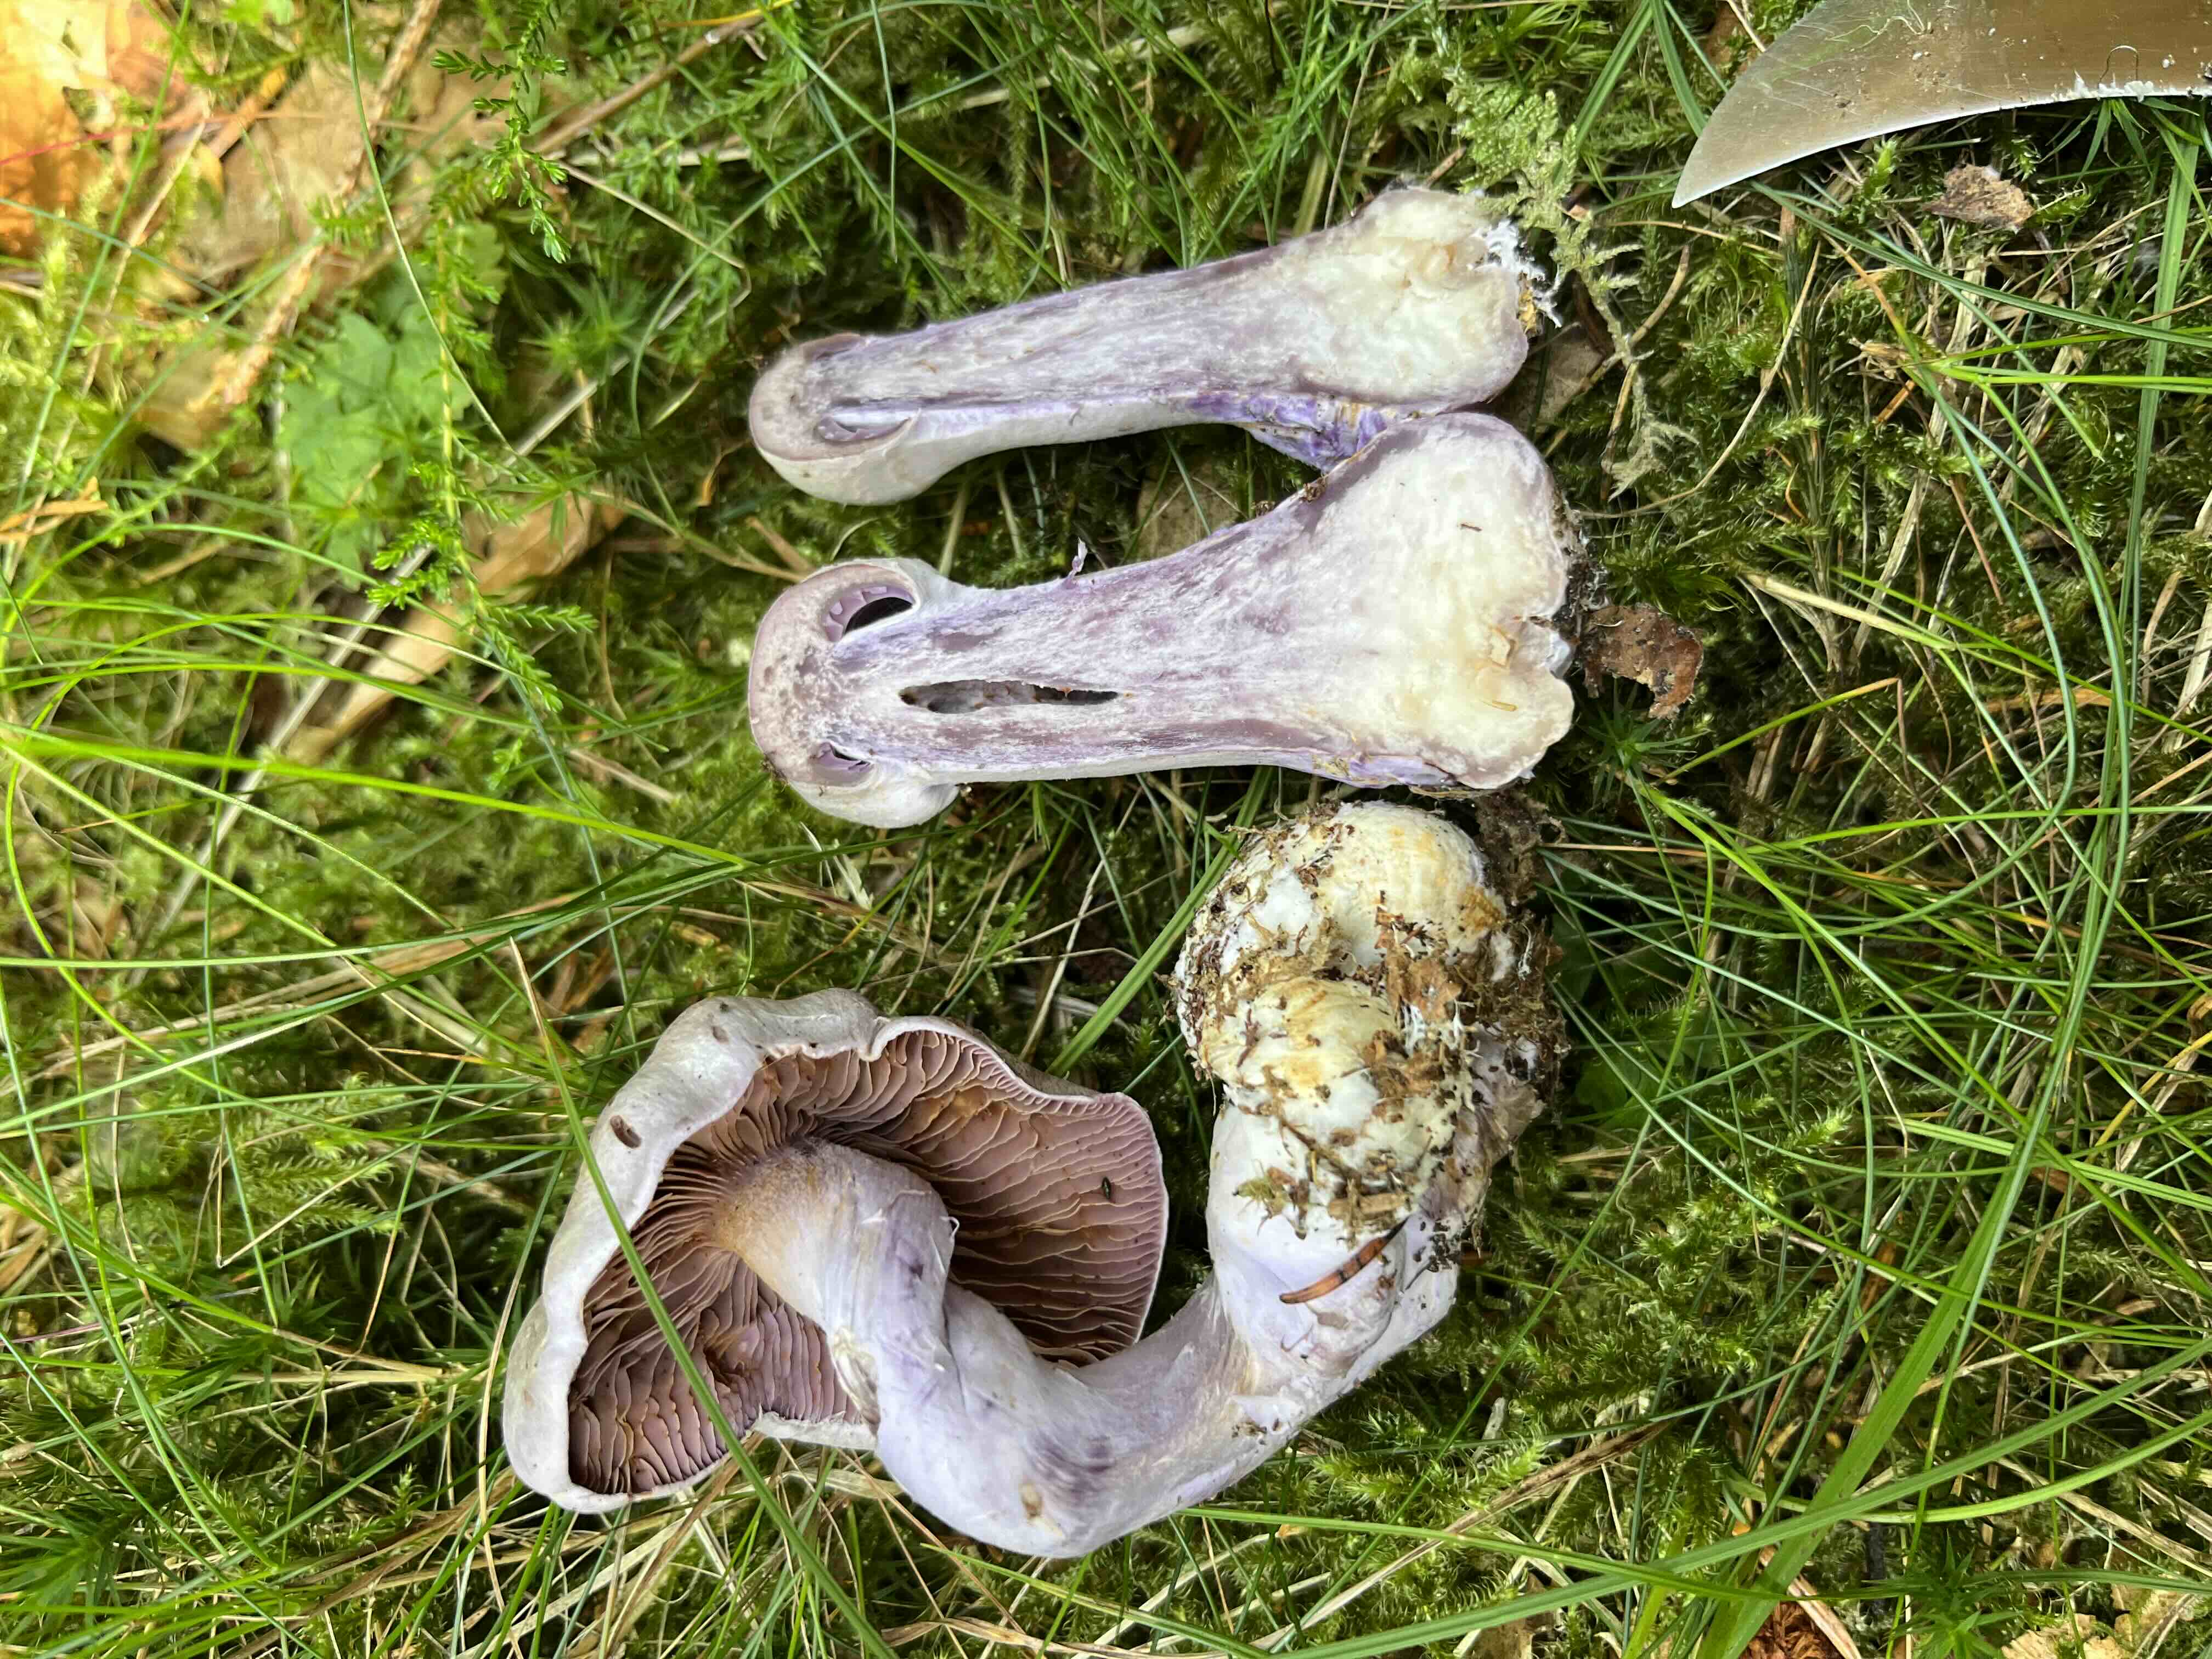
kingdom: Fungi
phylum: Basidiomycota
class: Agaricomycetes
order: Agaricales
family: Cortinariaceae
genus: Cortinarius
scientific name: Cortinarius camphoratus
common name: stinkende slørhat
